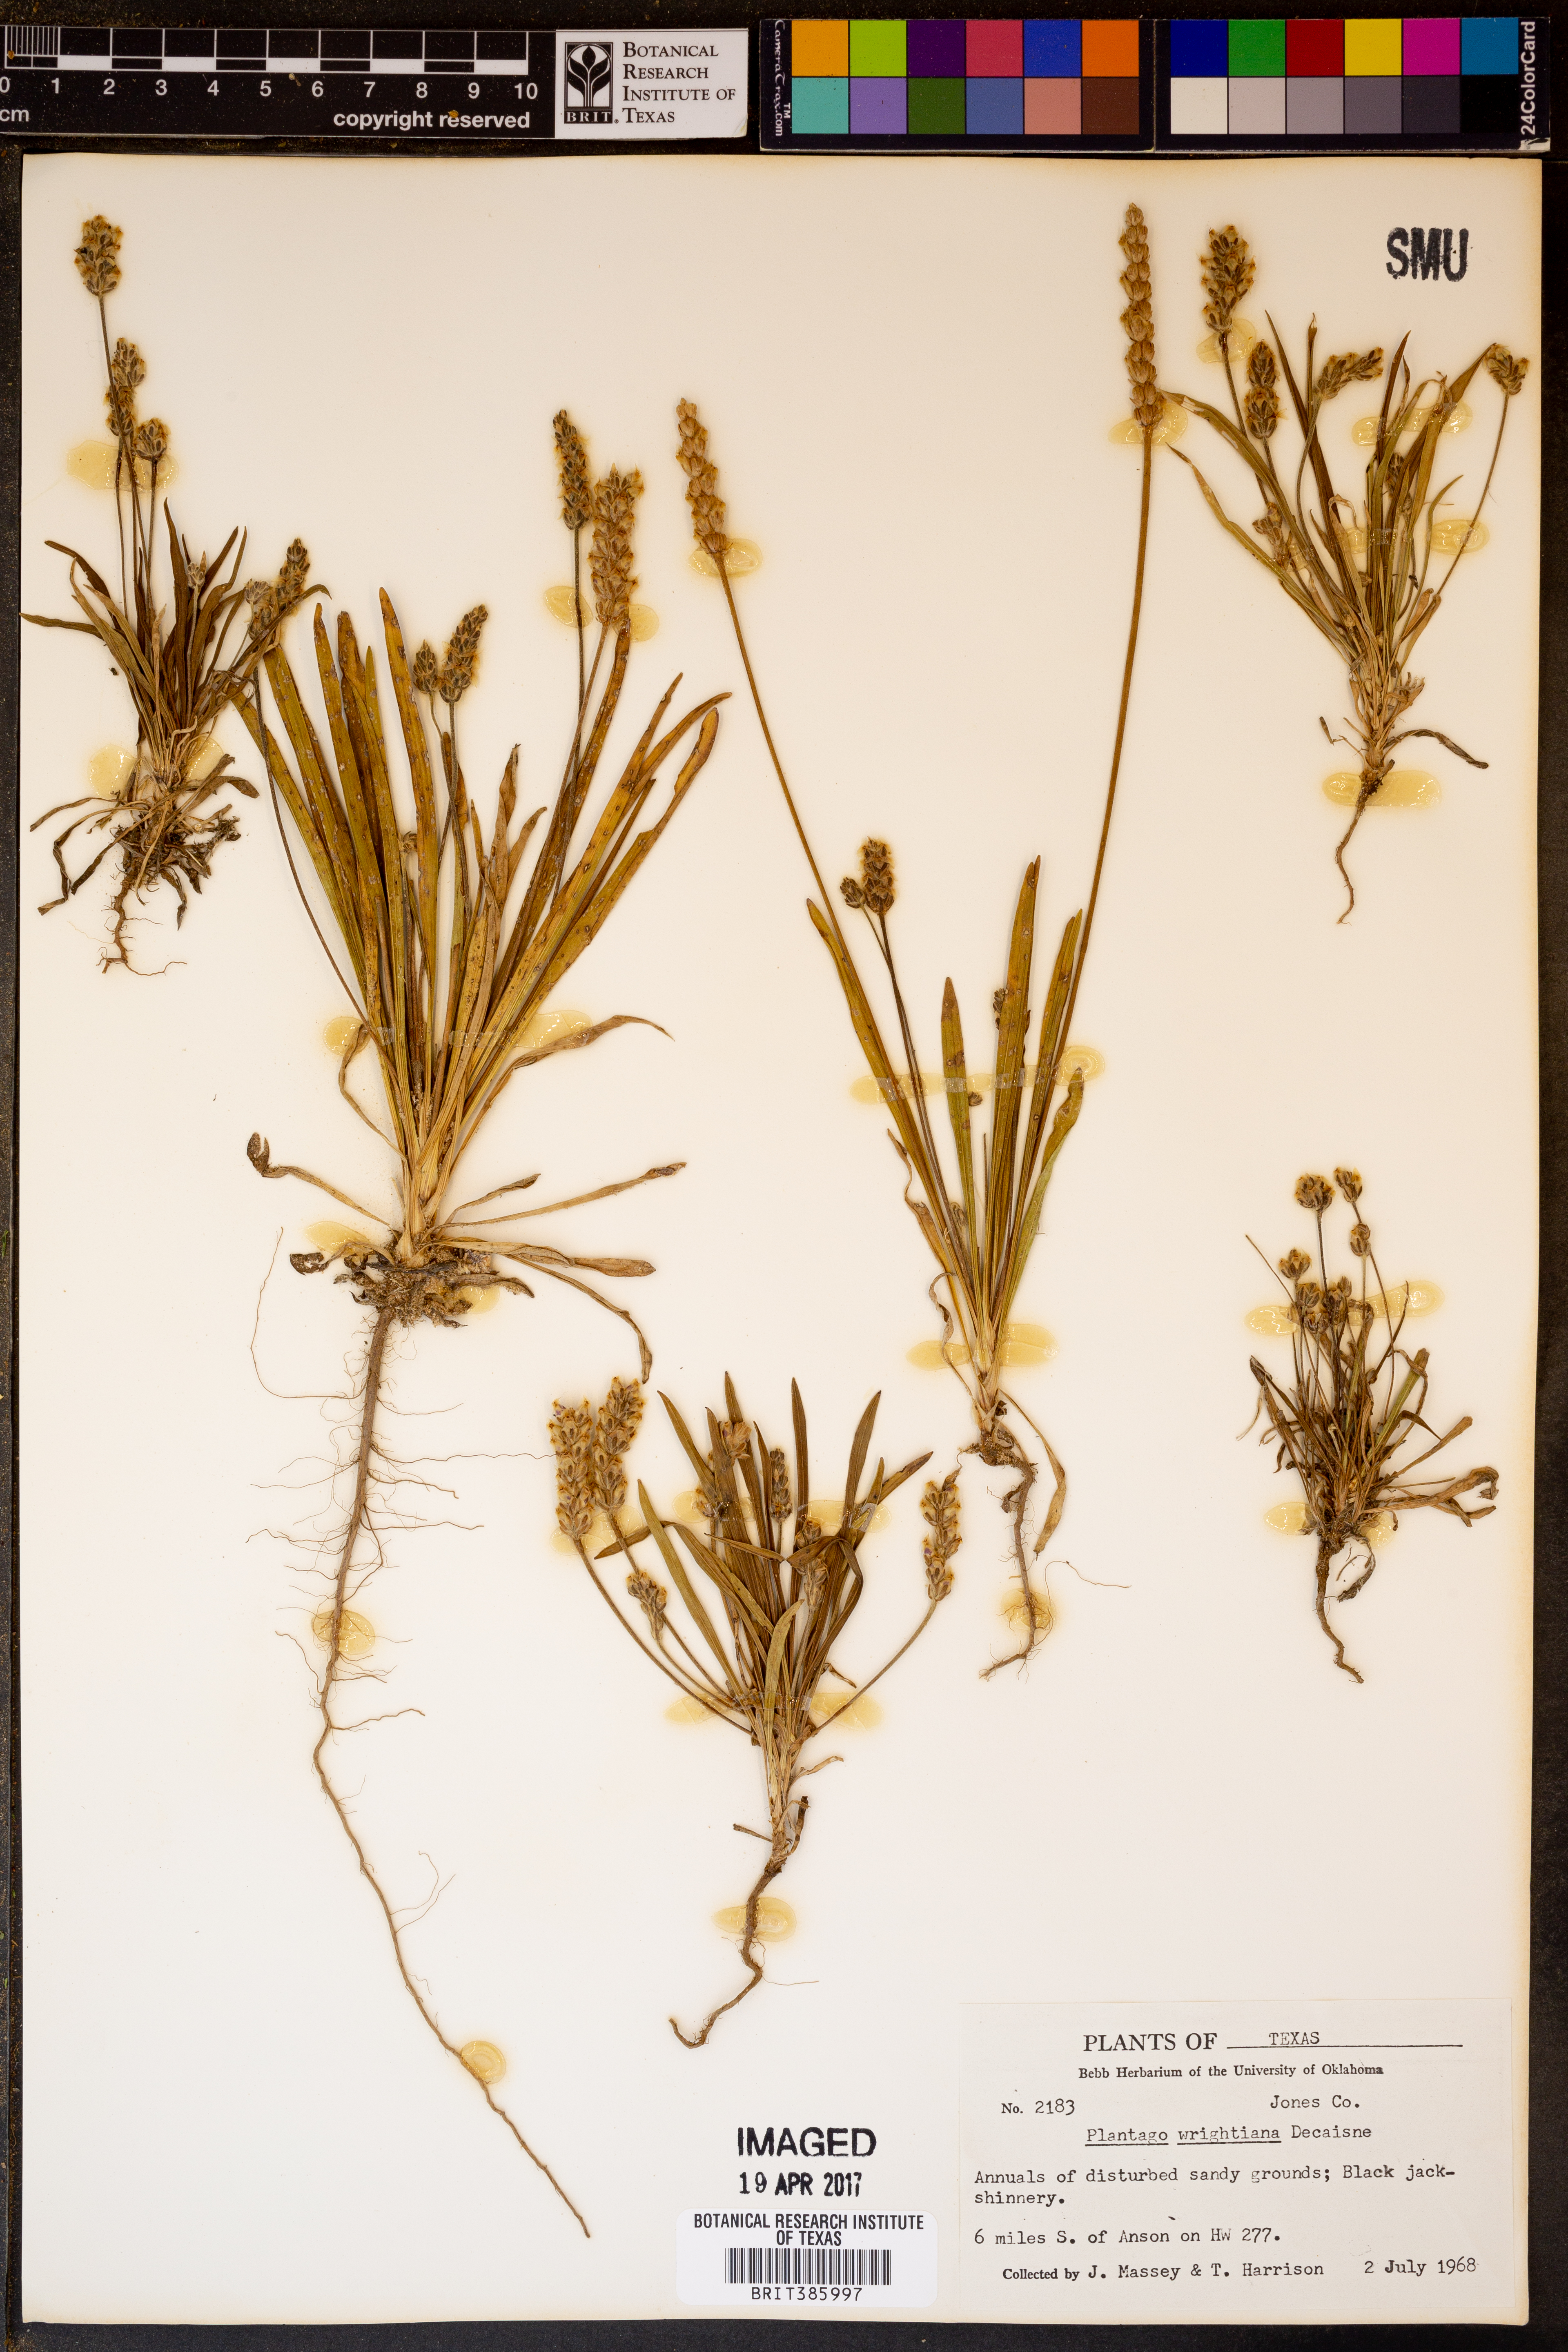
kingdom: Plantae
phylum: Tracheophyta
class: Magnoliopsida
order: Lamiales
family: Plantaginaceae
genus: Plantago
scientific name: Plantago wrightiana
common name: Wright's plantain
